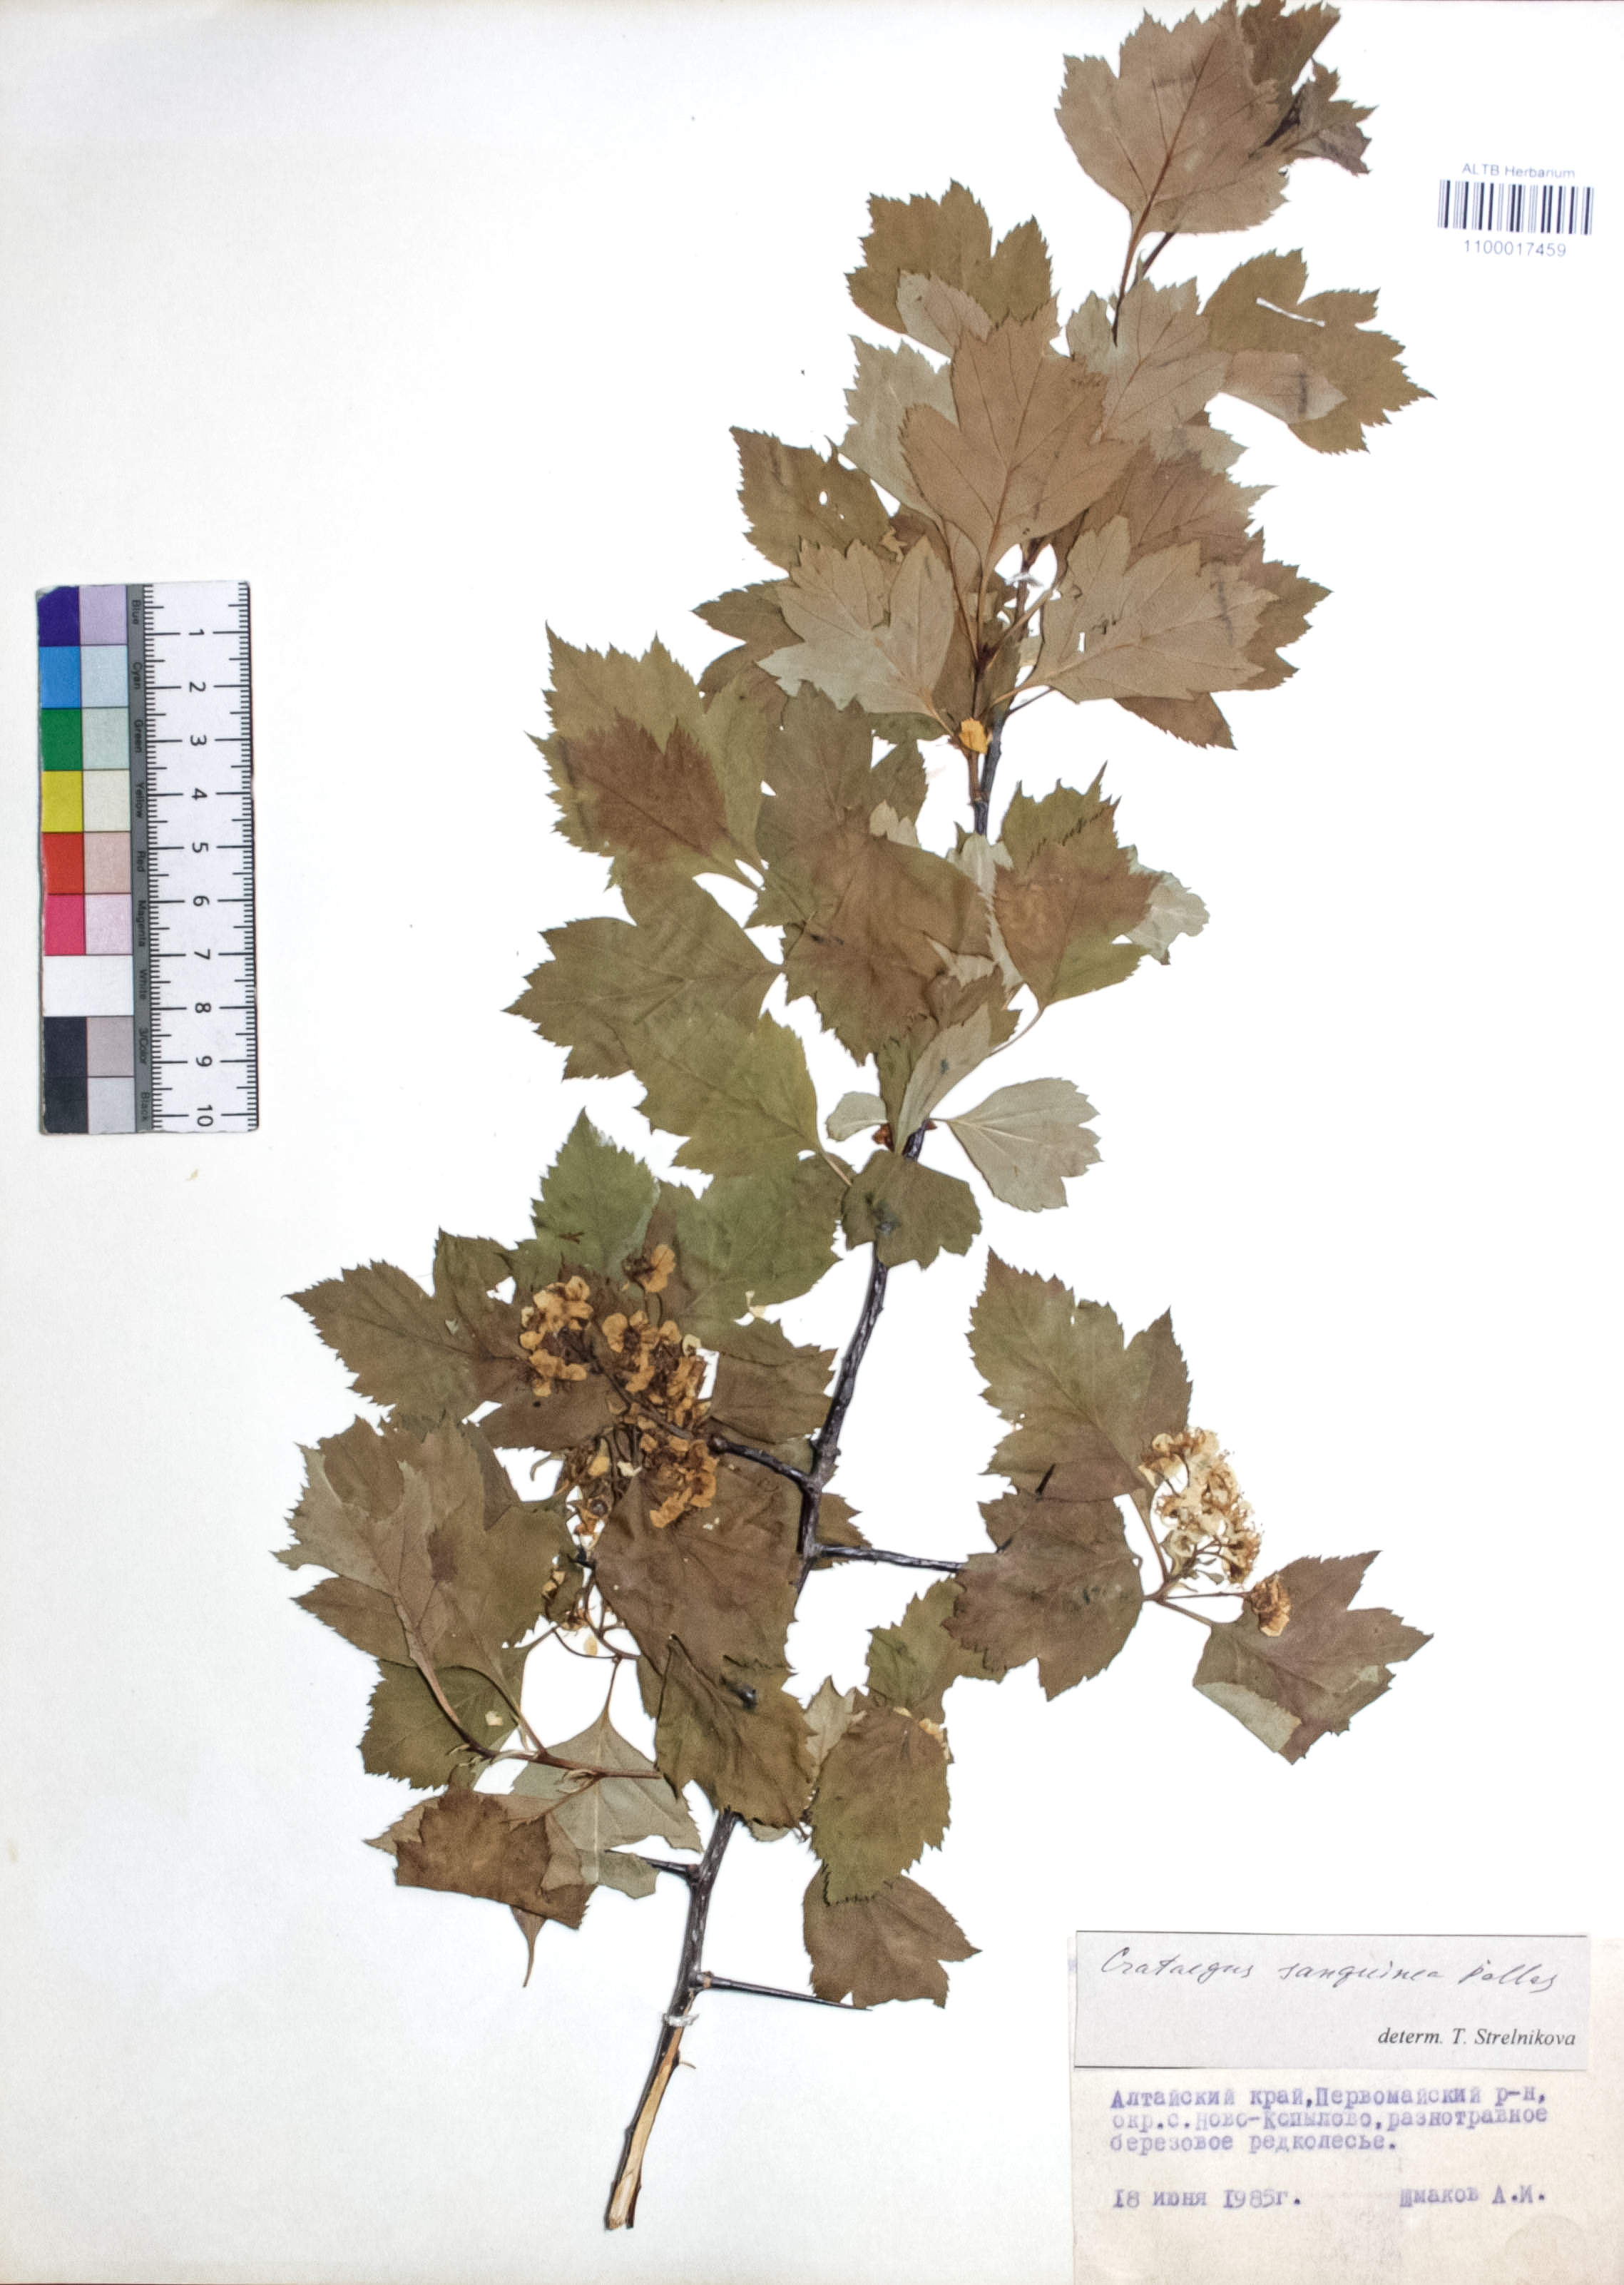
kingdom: Plantae
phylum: Tracheophyta
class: Magnoliopsida
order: Rosales
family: Rosaceae
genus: Crataegus
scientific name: Crataegus sanguinea
